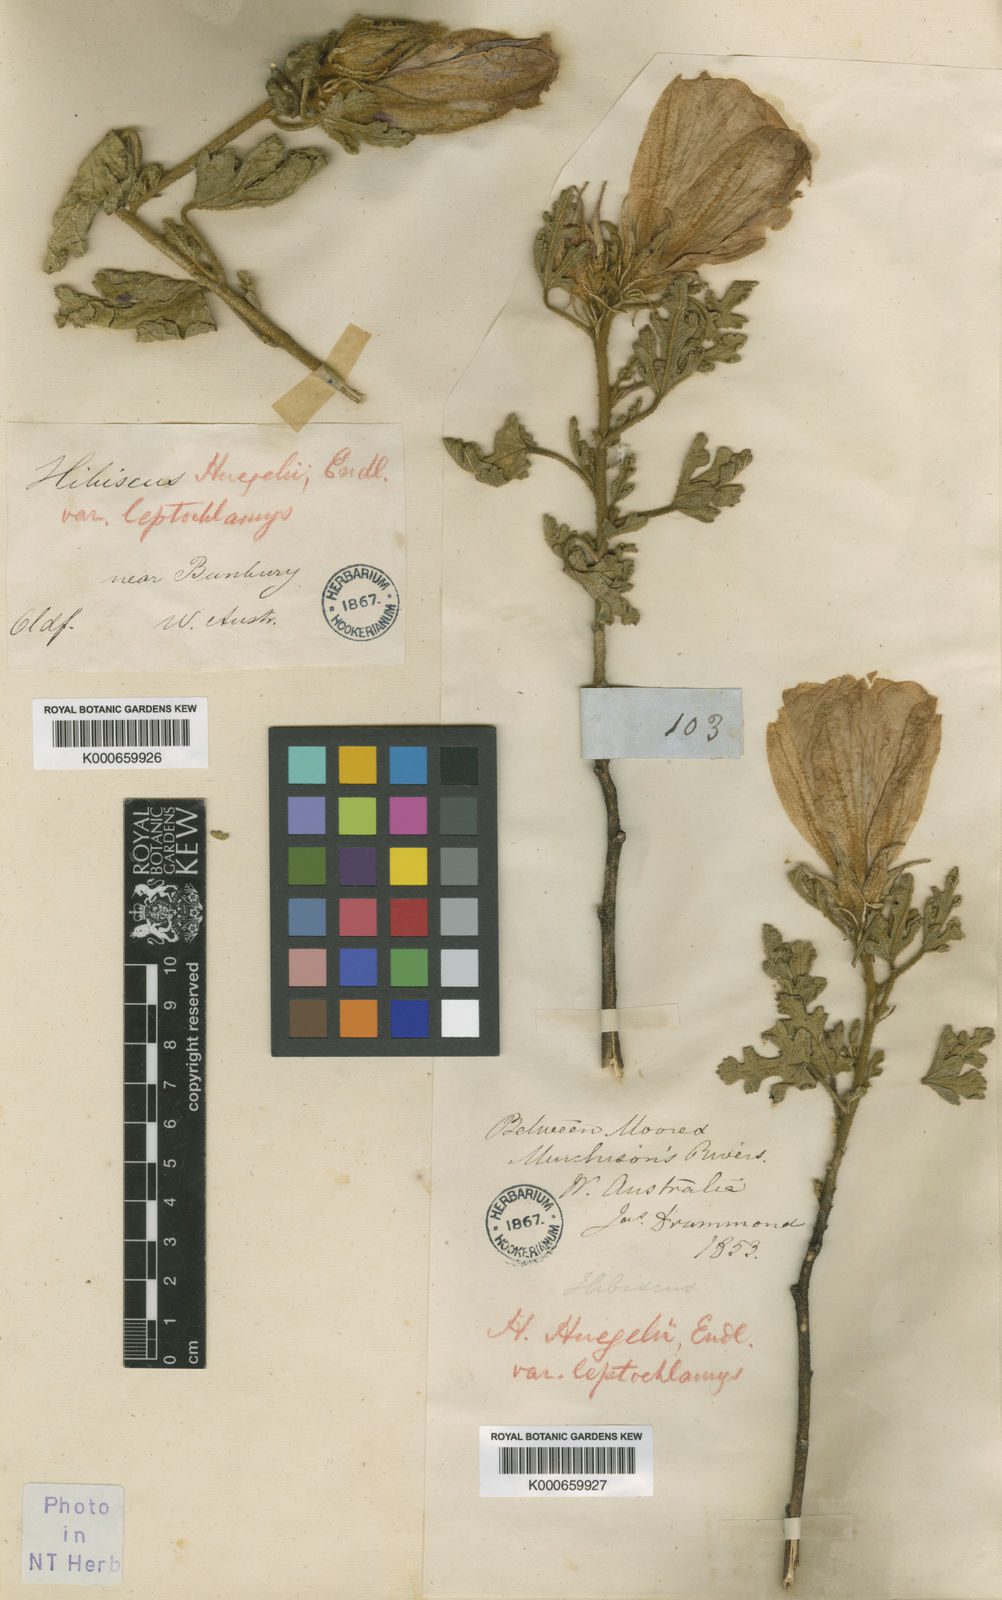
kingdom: Plantae
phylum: Tracheophyta
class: Magnoliopsida
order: Malvales
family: Malvaceae
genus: Hibiscus
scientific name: Hibiscus huegelii
